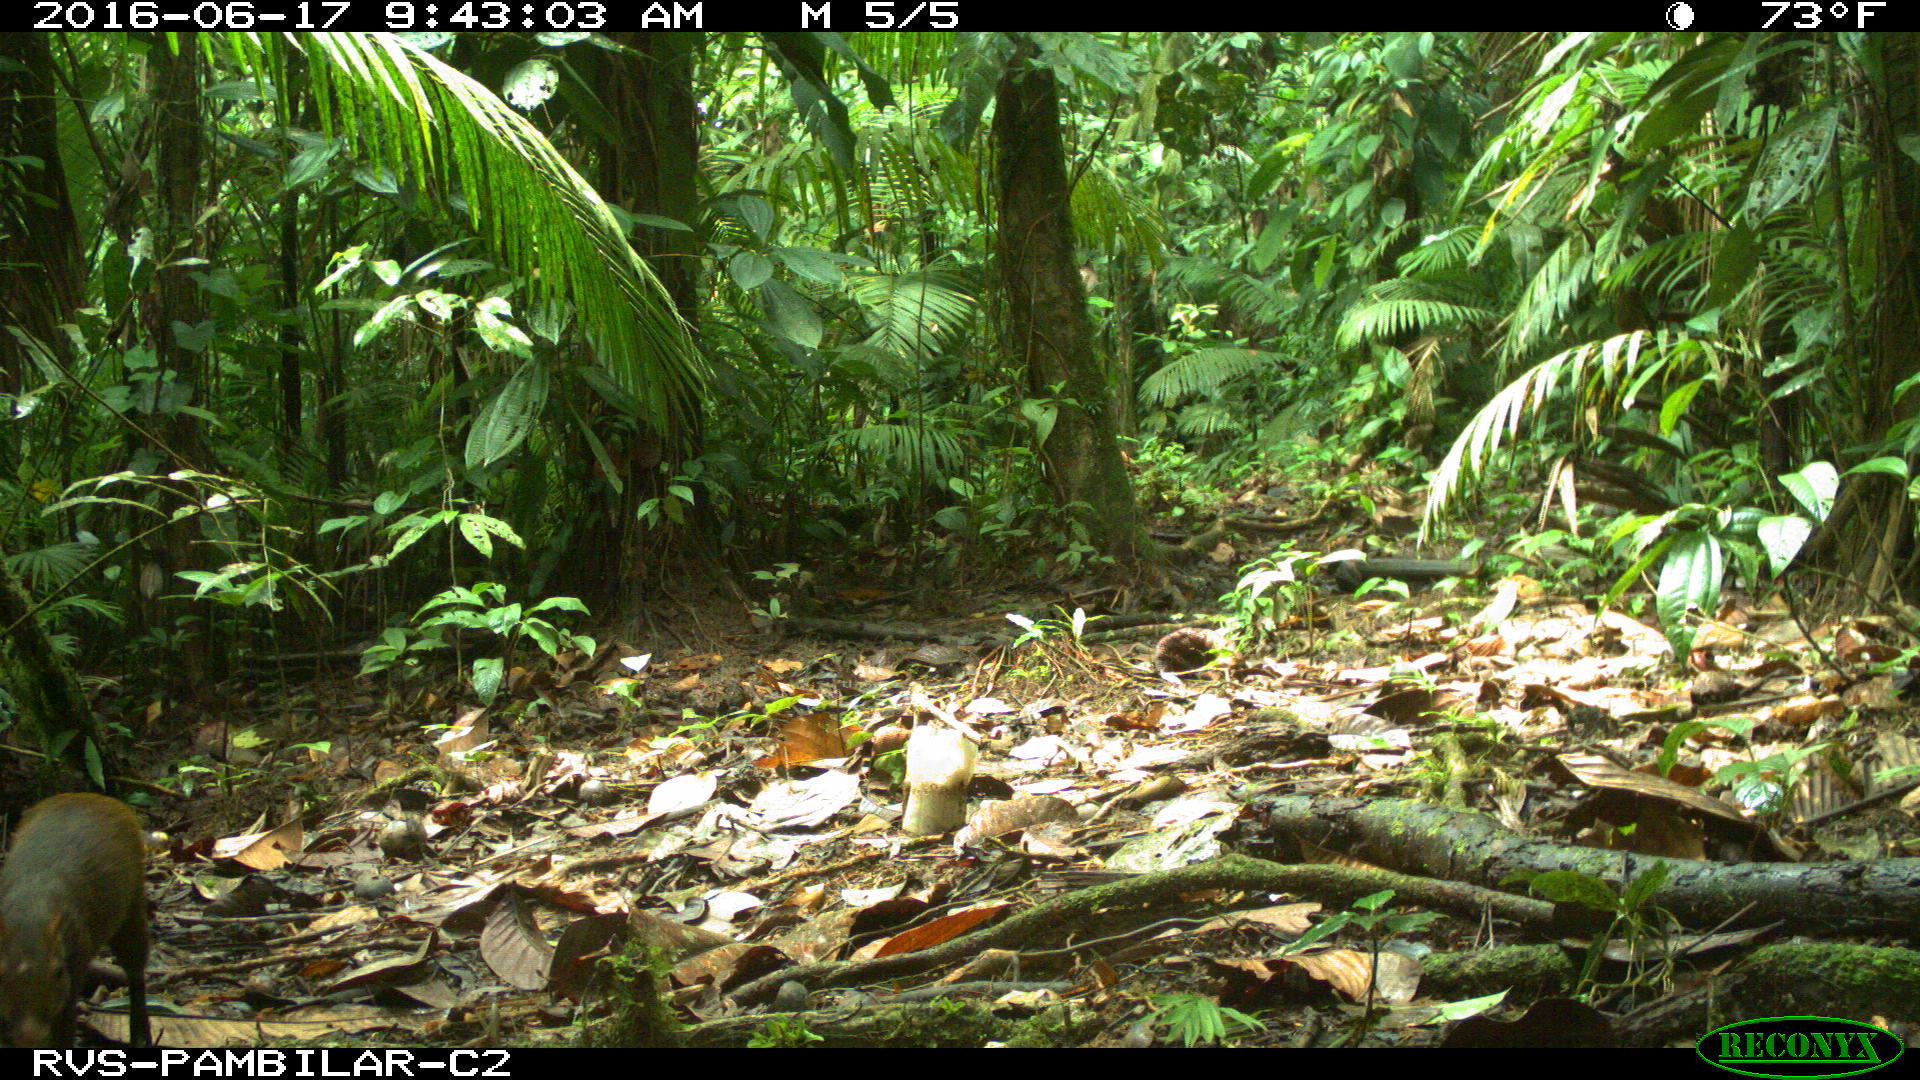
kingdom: Animalia
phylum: Chordata
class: Mammalia
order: Rodentia
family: Dasyproctidae
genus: Dasyprocta
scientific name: Dasyprocta punctata
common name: Central american agouti
